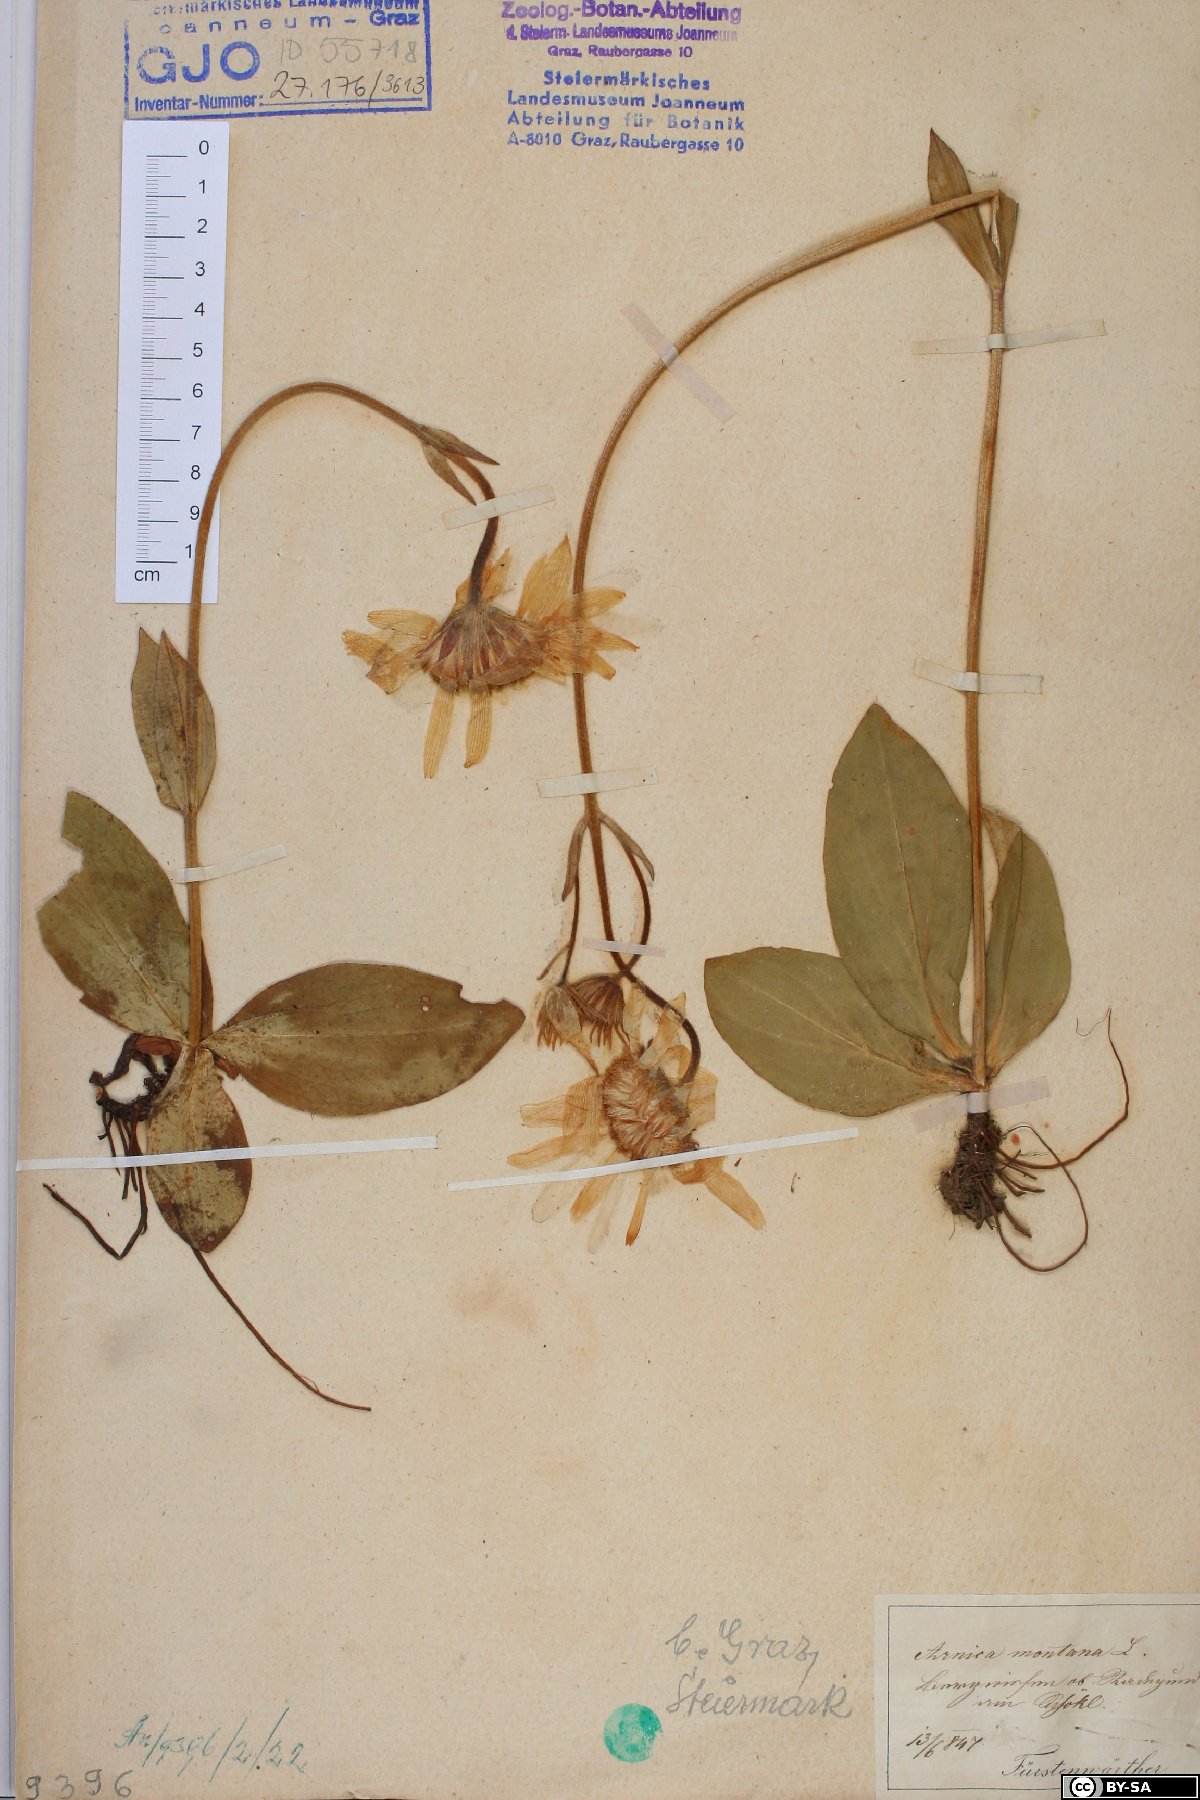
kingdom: Plantae
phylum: Tracheophyta
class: Magnoliopsida
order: Asterales
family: Asteraceae
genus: Arnica
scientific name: Arnica montana
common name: Leopard's bane
